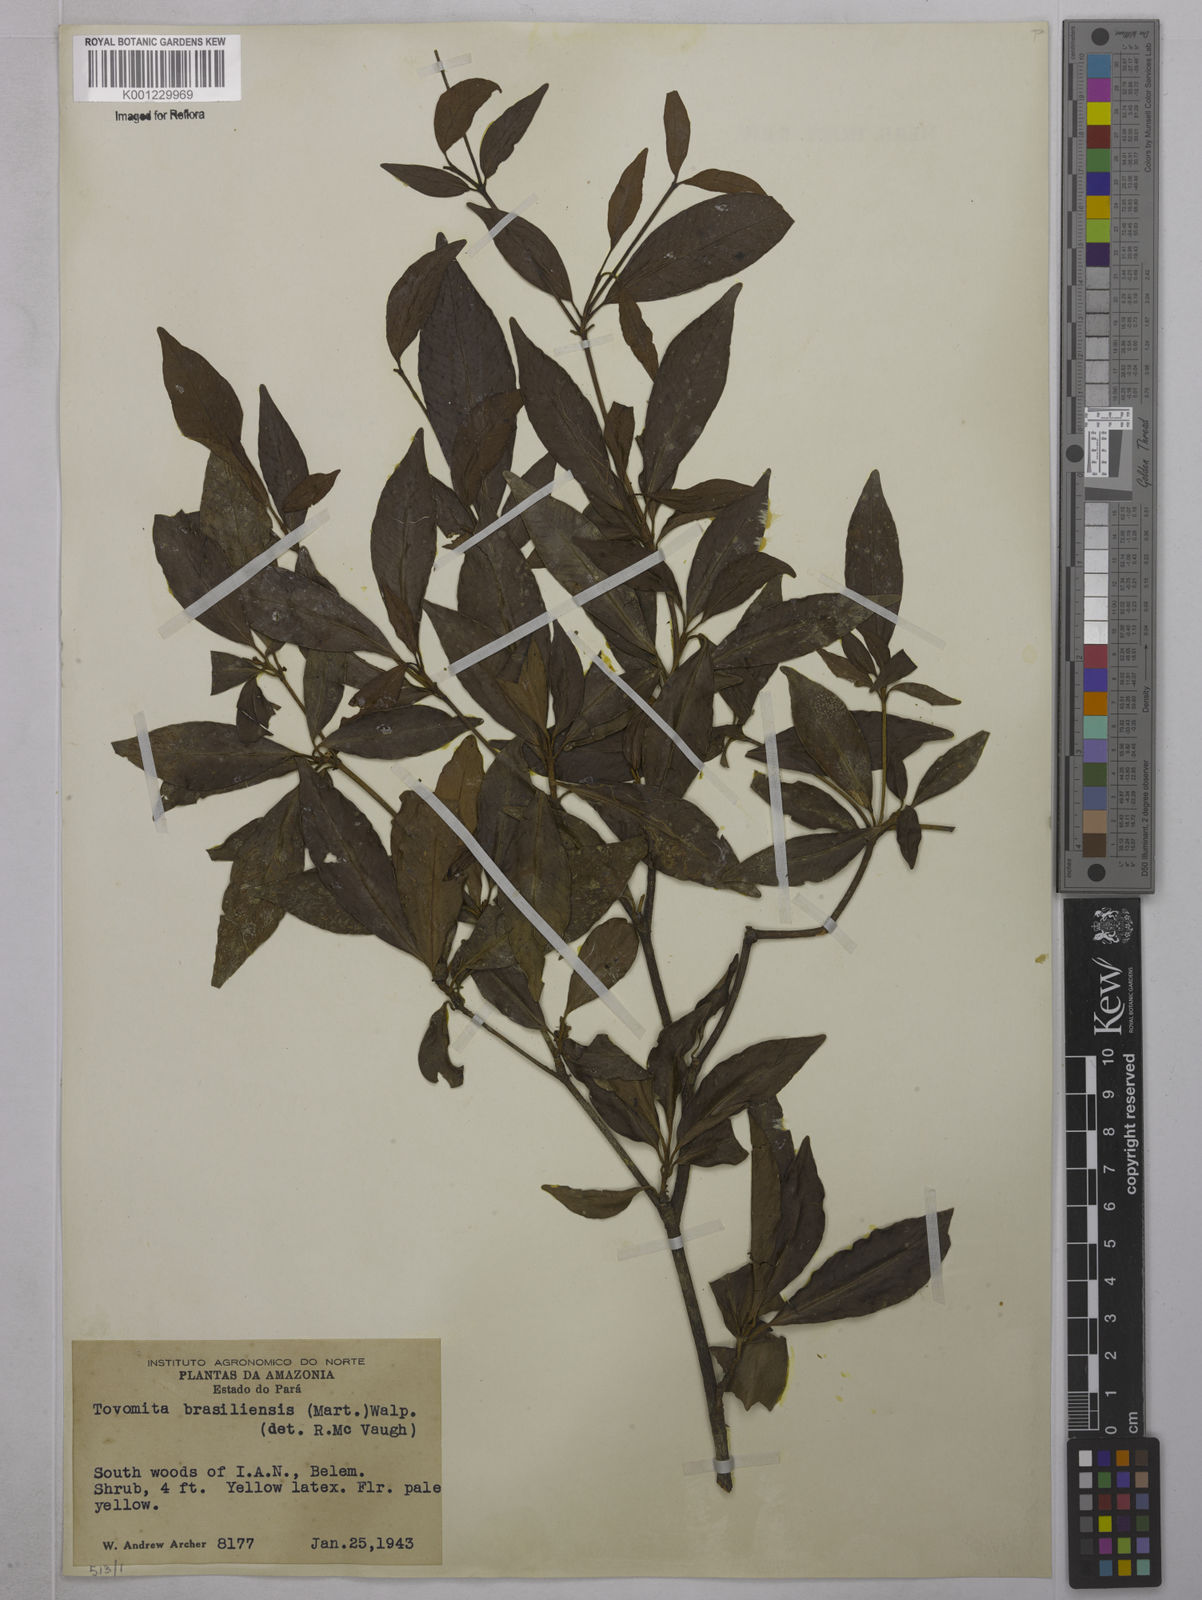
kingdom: Plantae
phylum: Tracheophyta
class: Magnoliopsida
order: Malpighiales
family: Clusiaceae
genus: Tovomita
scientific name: Tovomita
